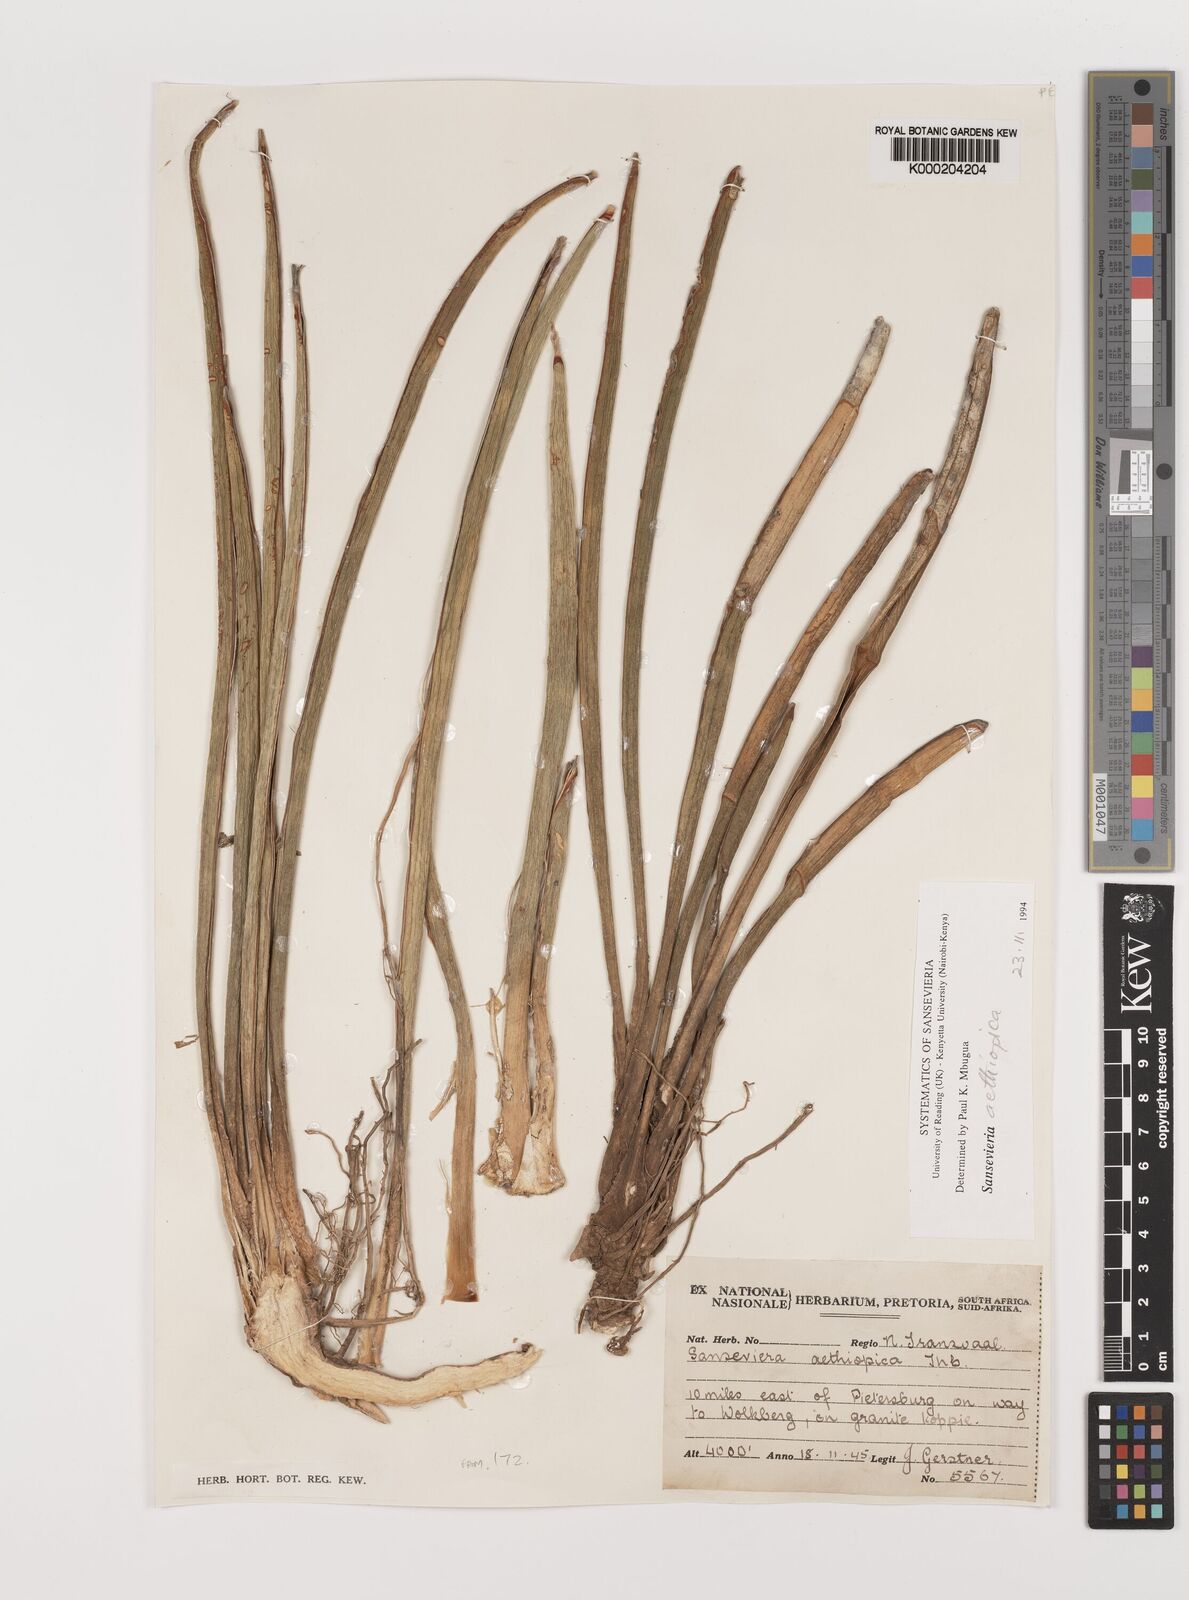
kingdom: Plantae
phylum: Tracheophyta
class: Liliopsida
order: Asparagales
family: Asparagaceae
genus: Dracaena
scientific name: Dracaena aethiopica
